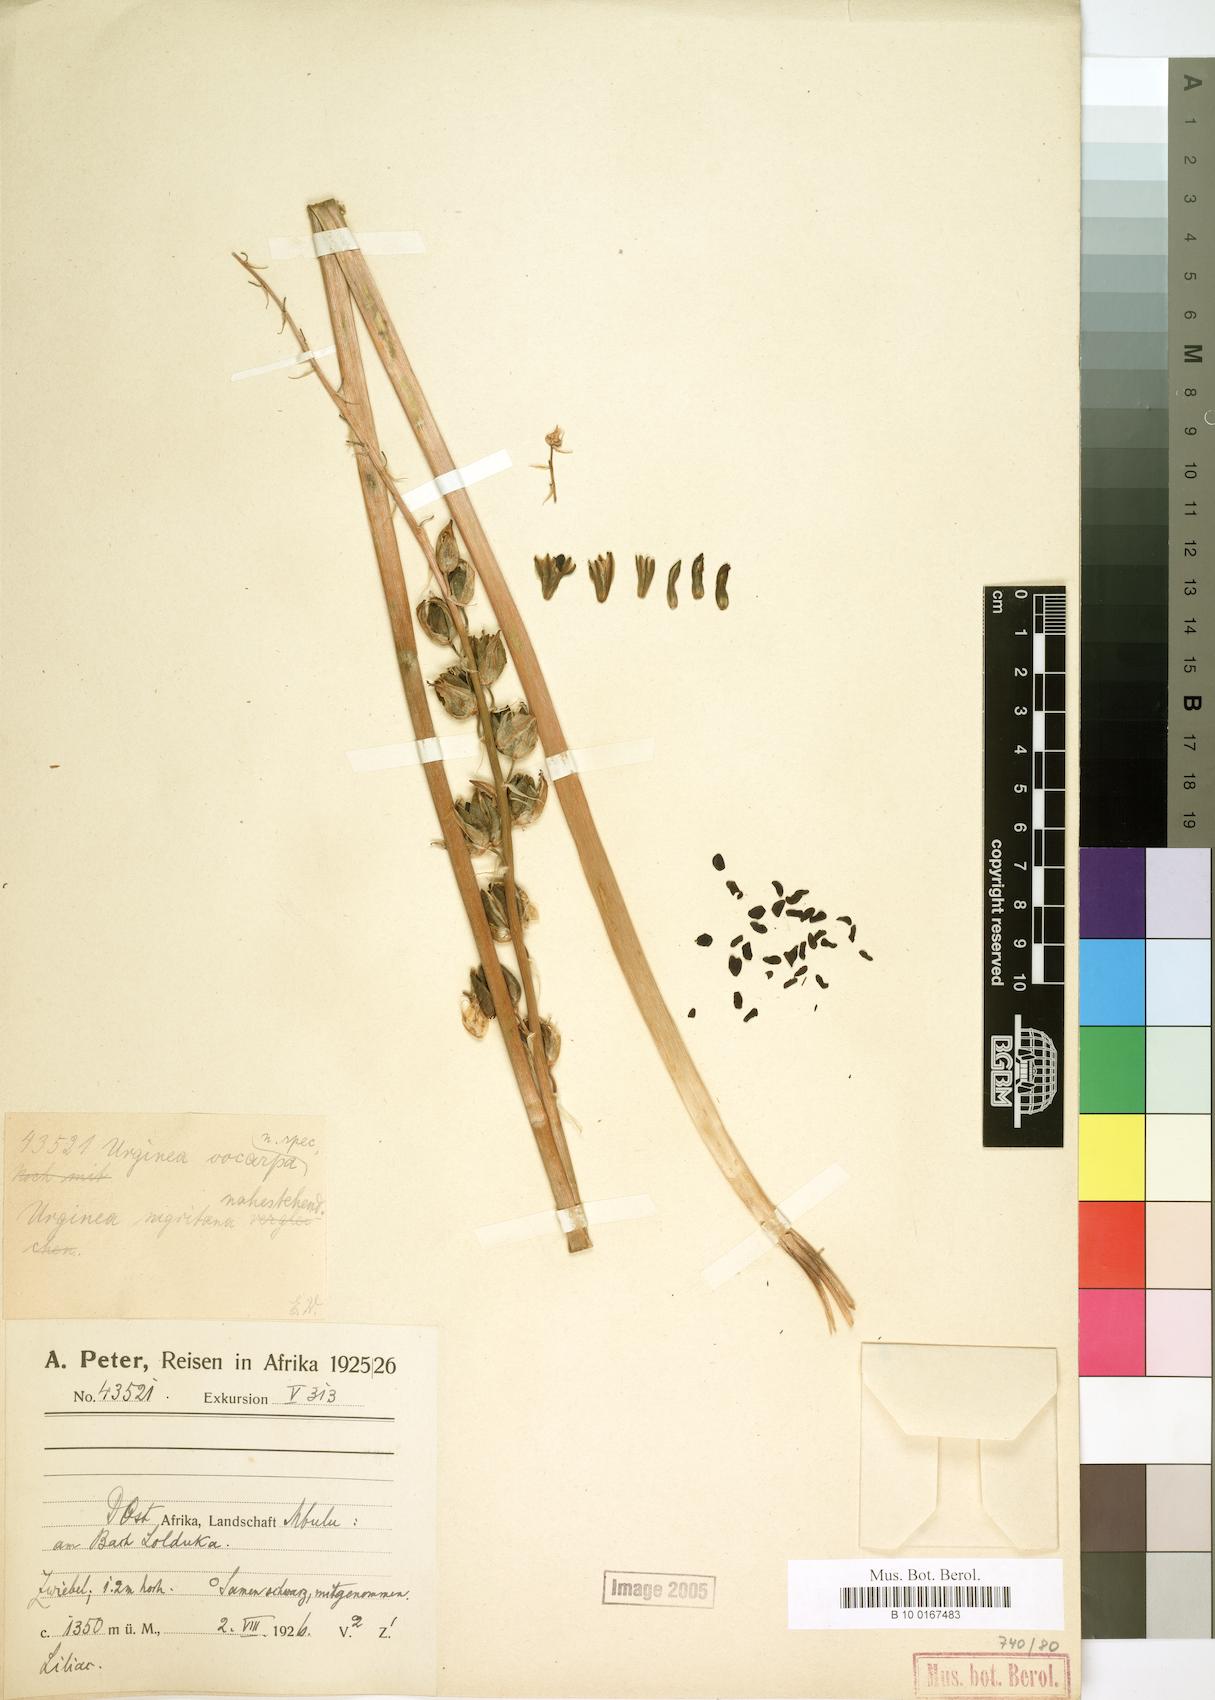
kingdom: Plantae
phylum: Tracheophyta
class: Liliopsida
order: Asparagales
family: Asparagaceae
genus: Drimia
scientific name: Drimia
